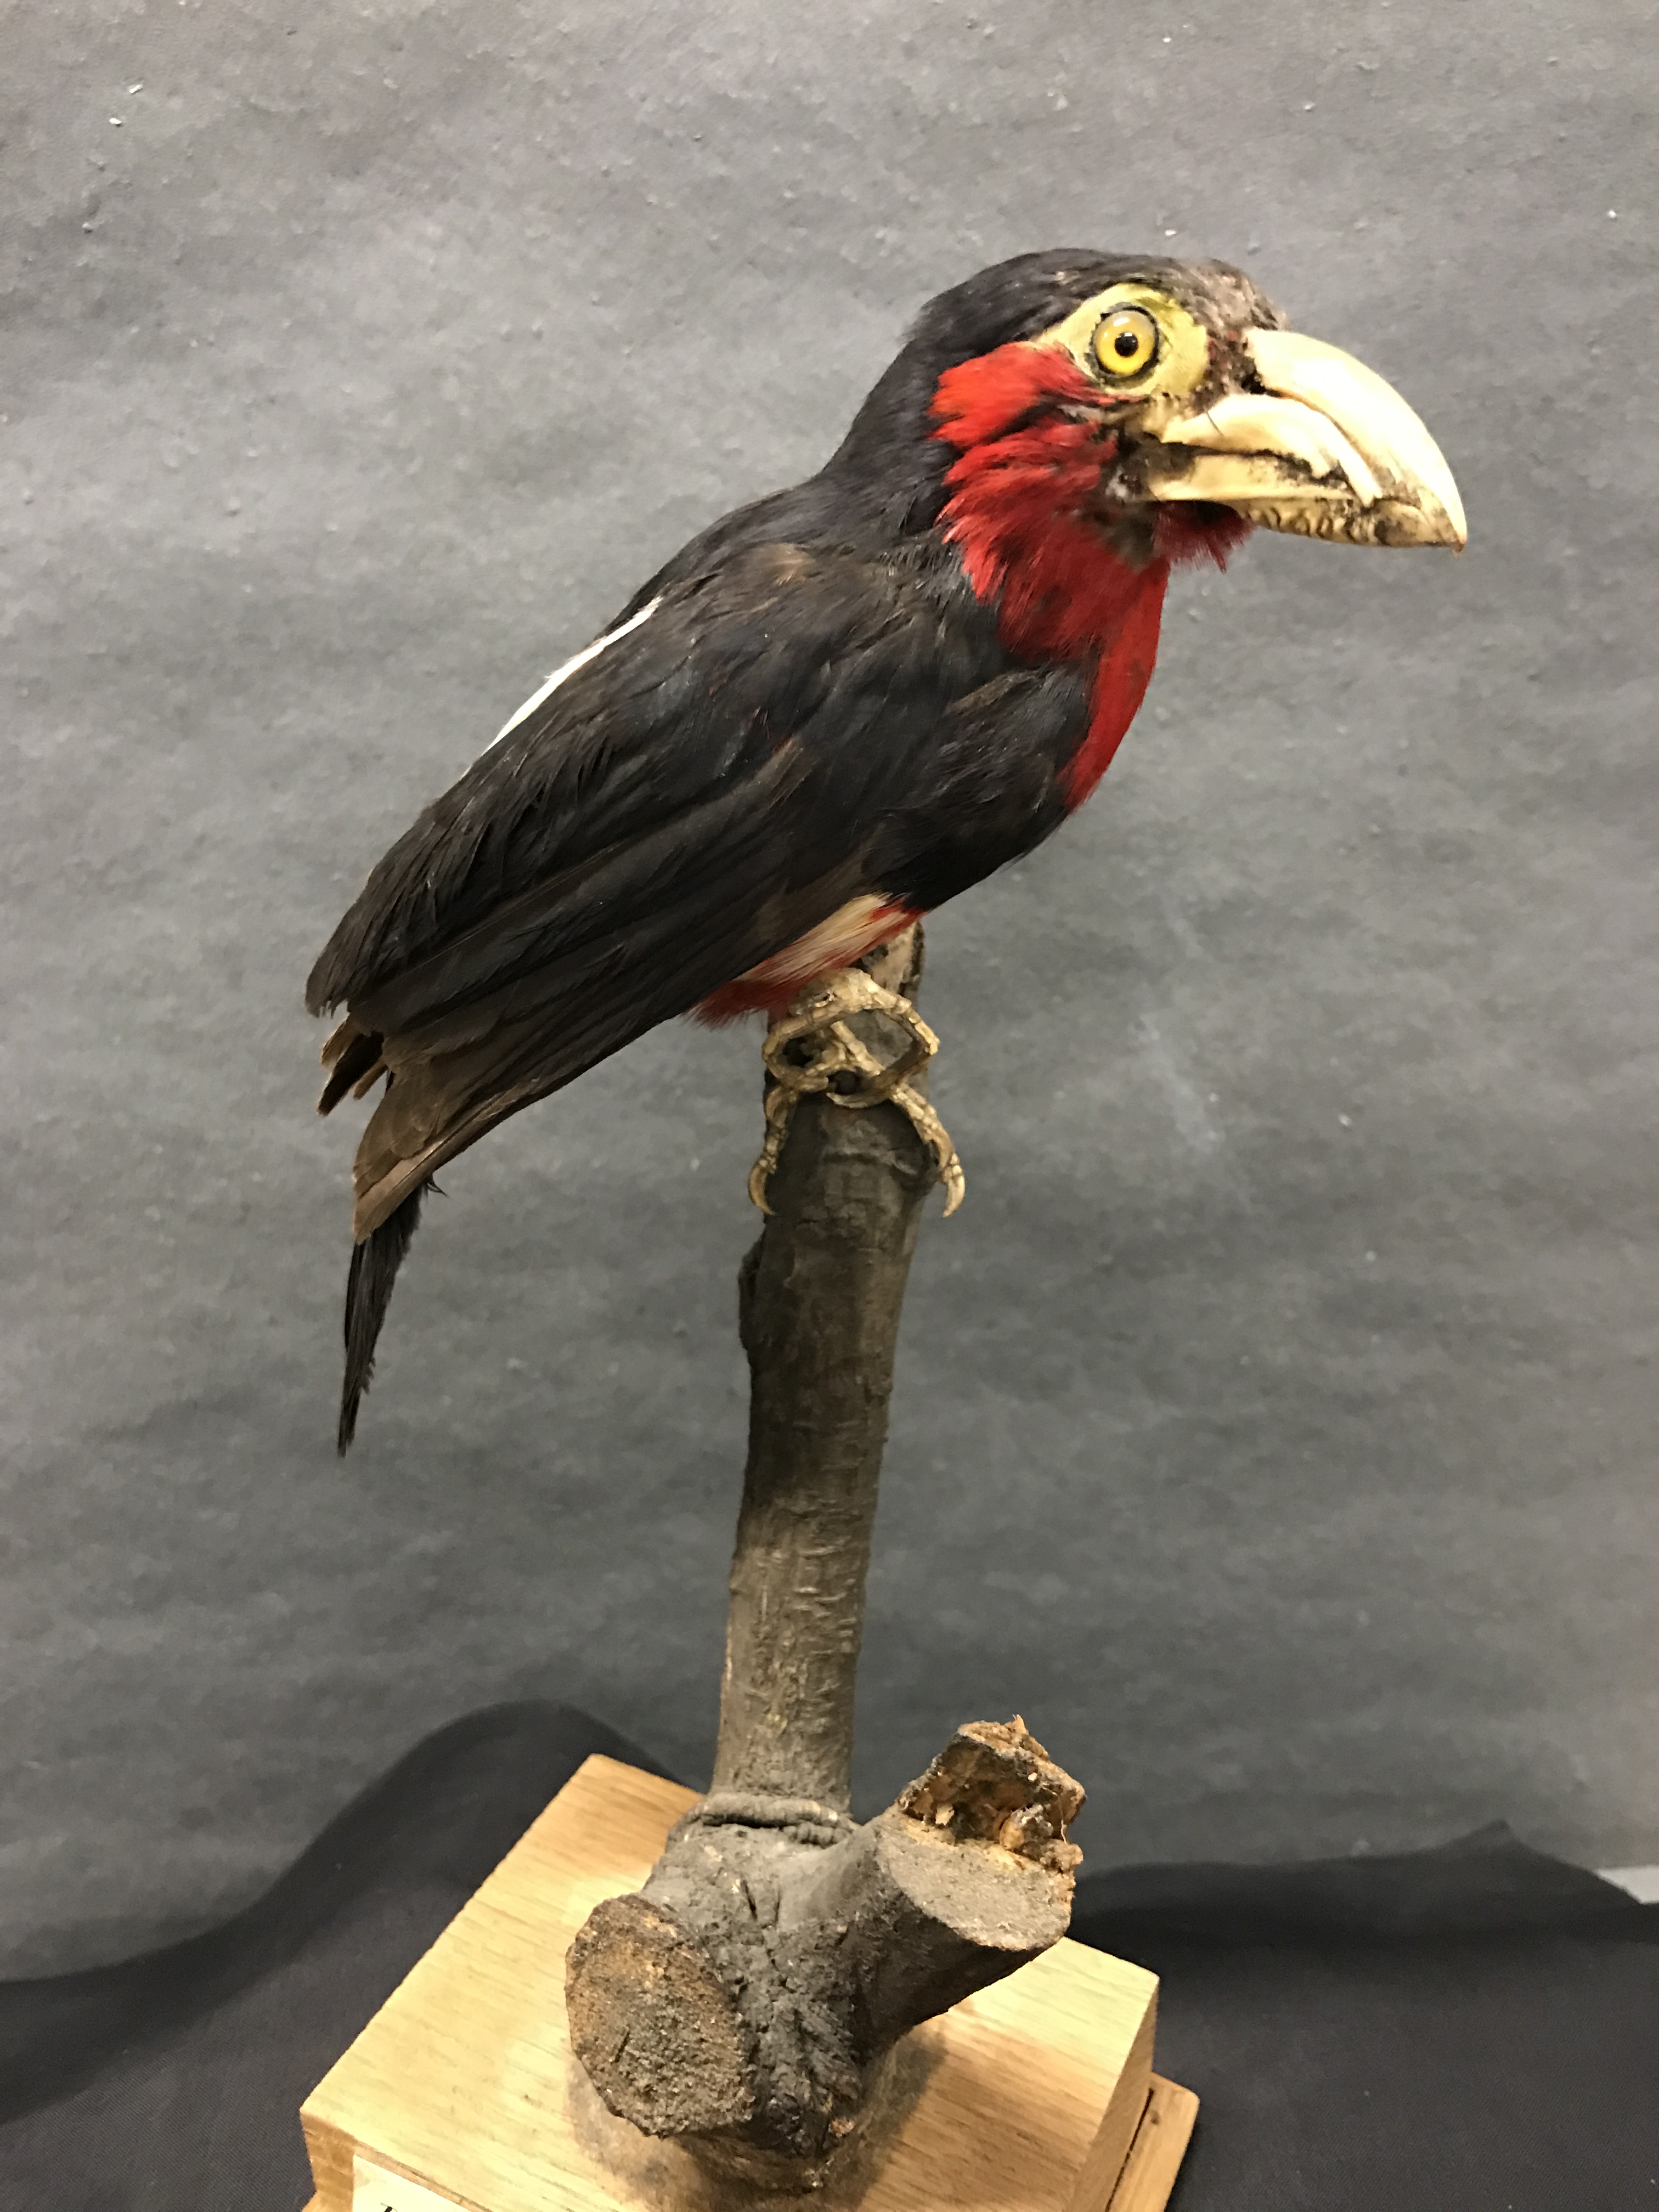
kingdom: Animalia
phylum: Chordata
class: Aves
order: Piciformes
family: Lybiidae
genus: Lybius
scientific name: Lybius dubius
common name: Bearded barbet
